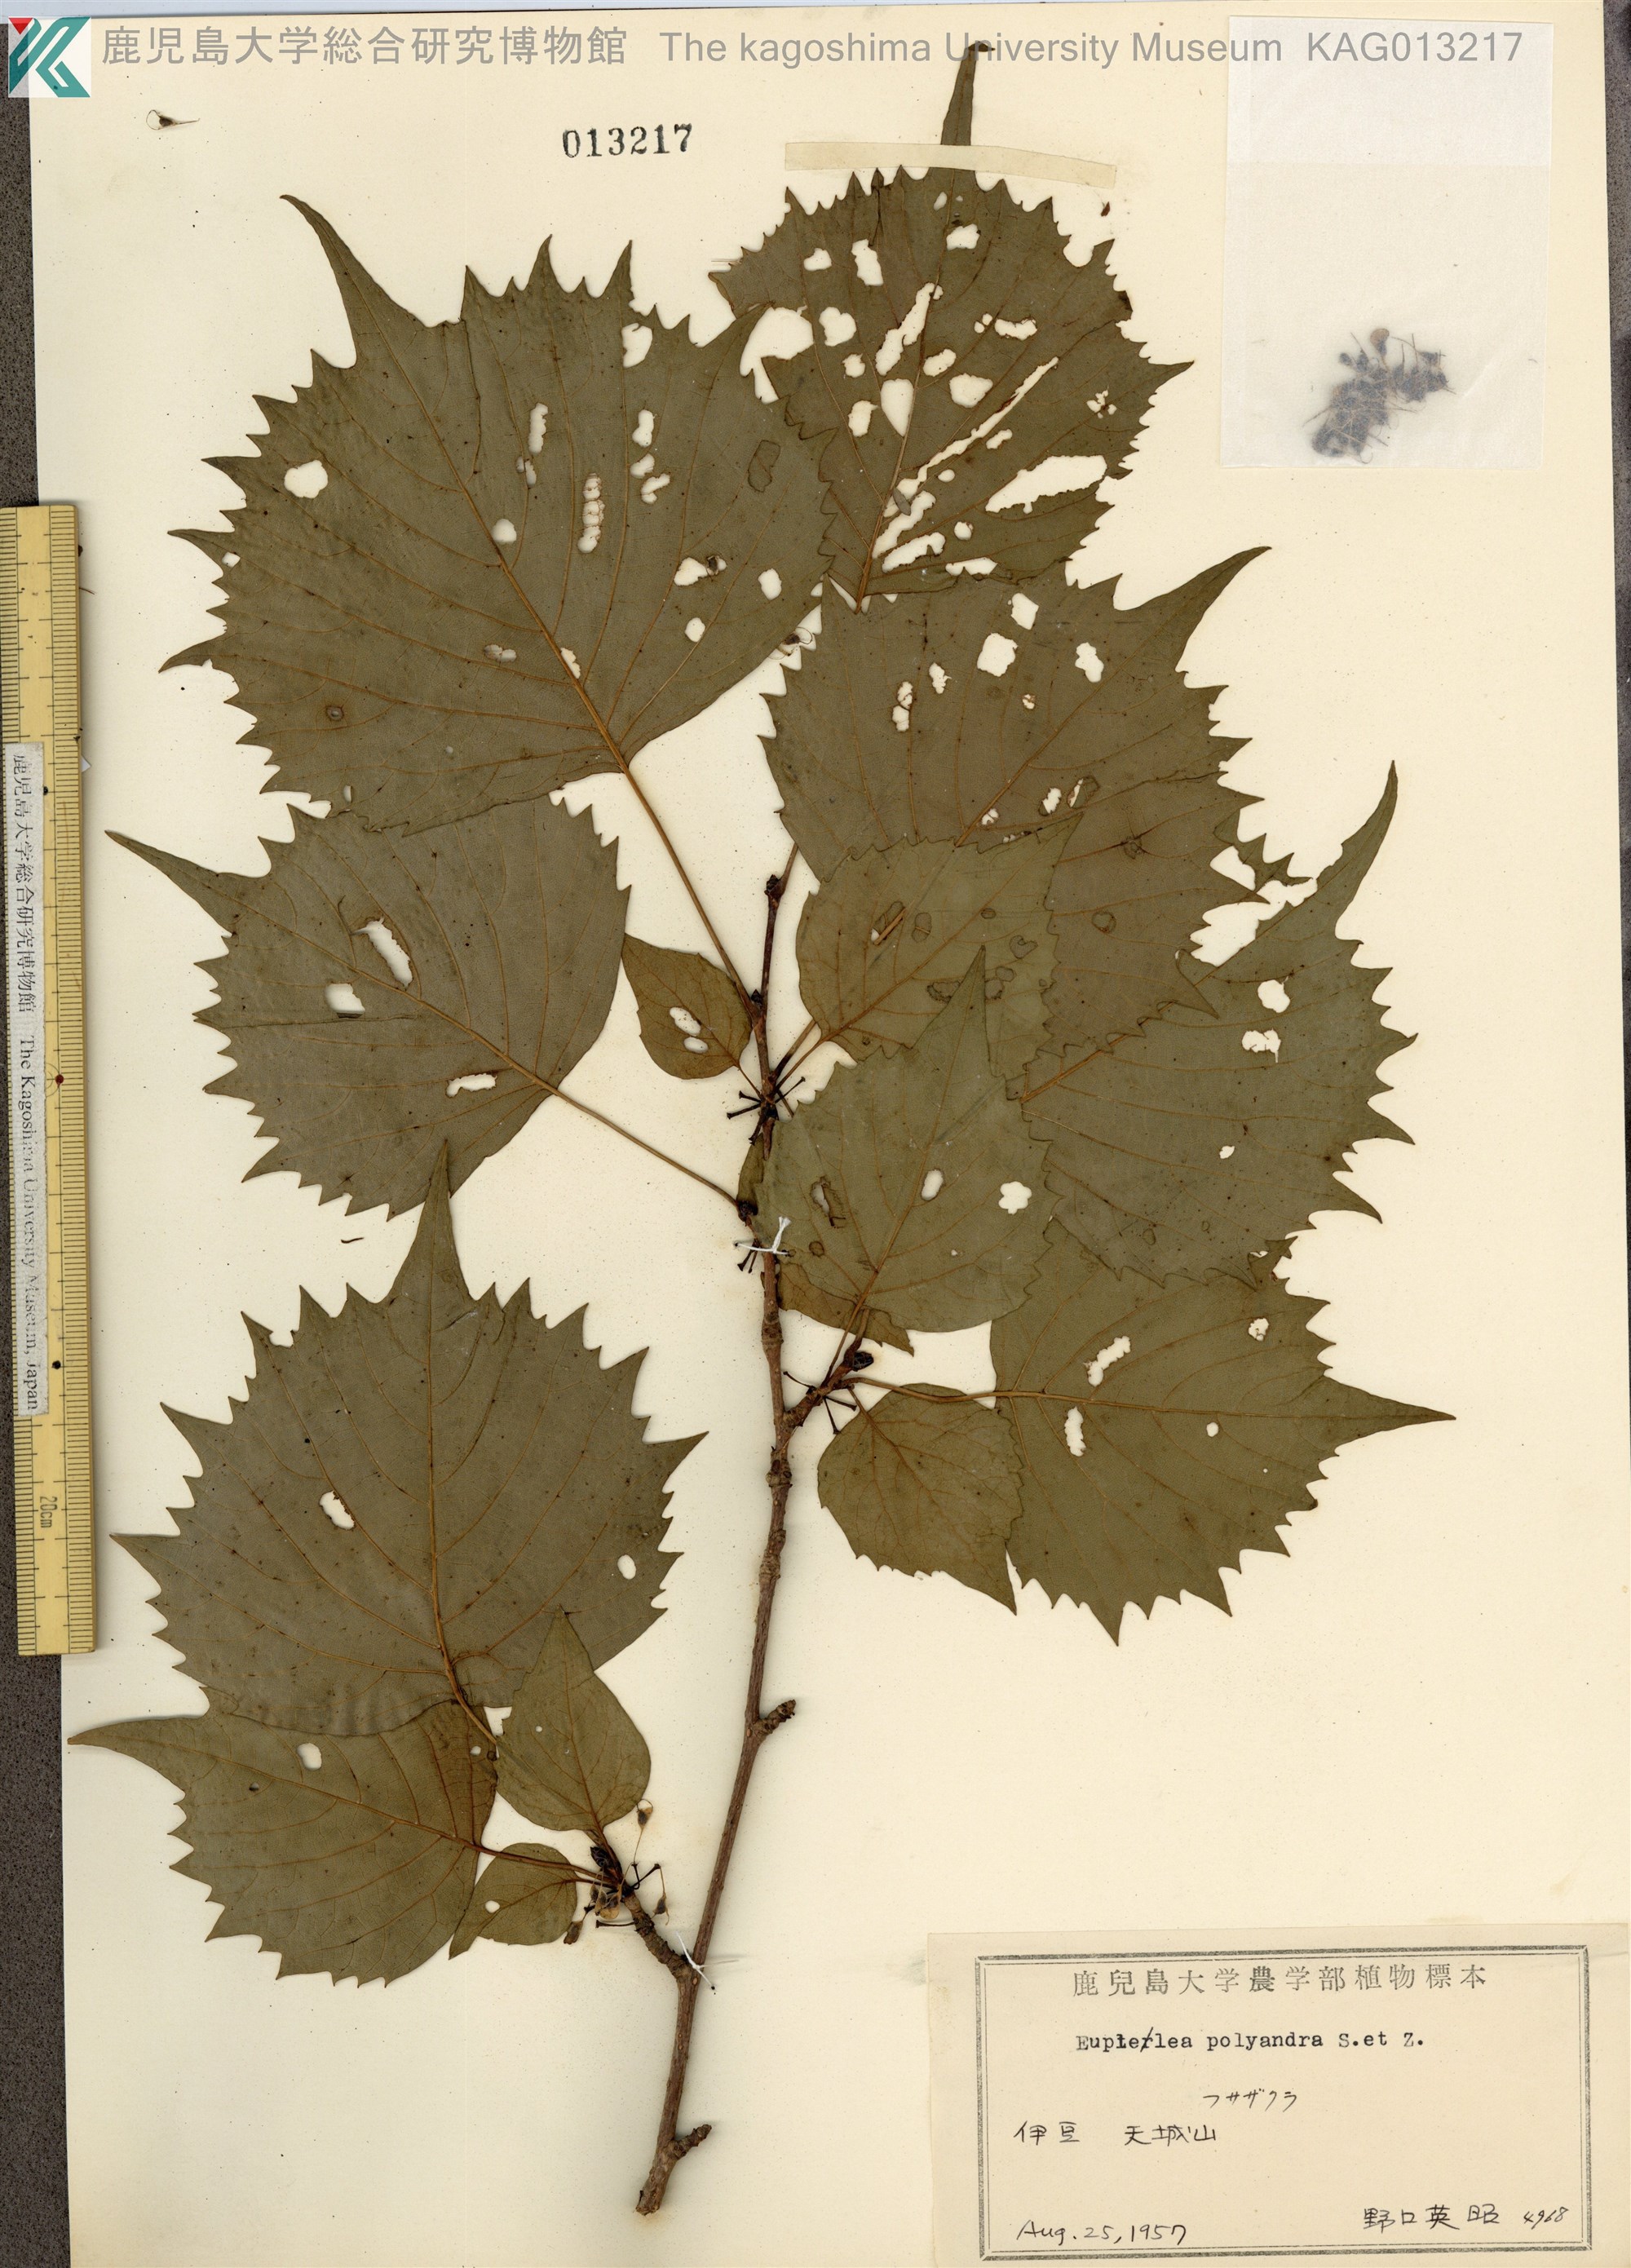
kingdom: Plantae
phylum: Tracheophyta
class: Magnoliopsida
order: Ranunculales
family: Eupteleaceae
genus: Euptelea
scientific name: Euptelea polyandra
